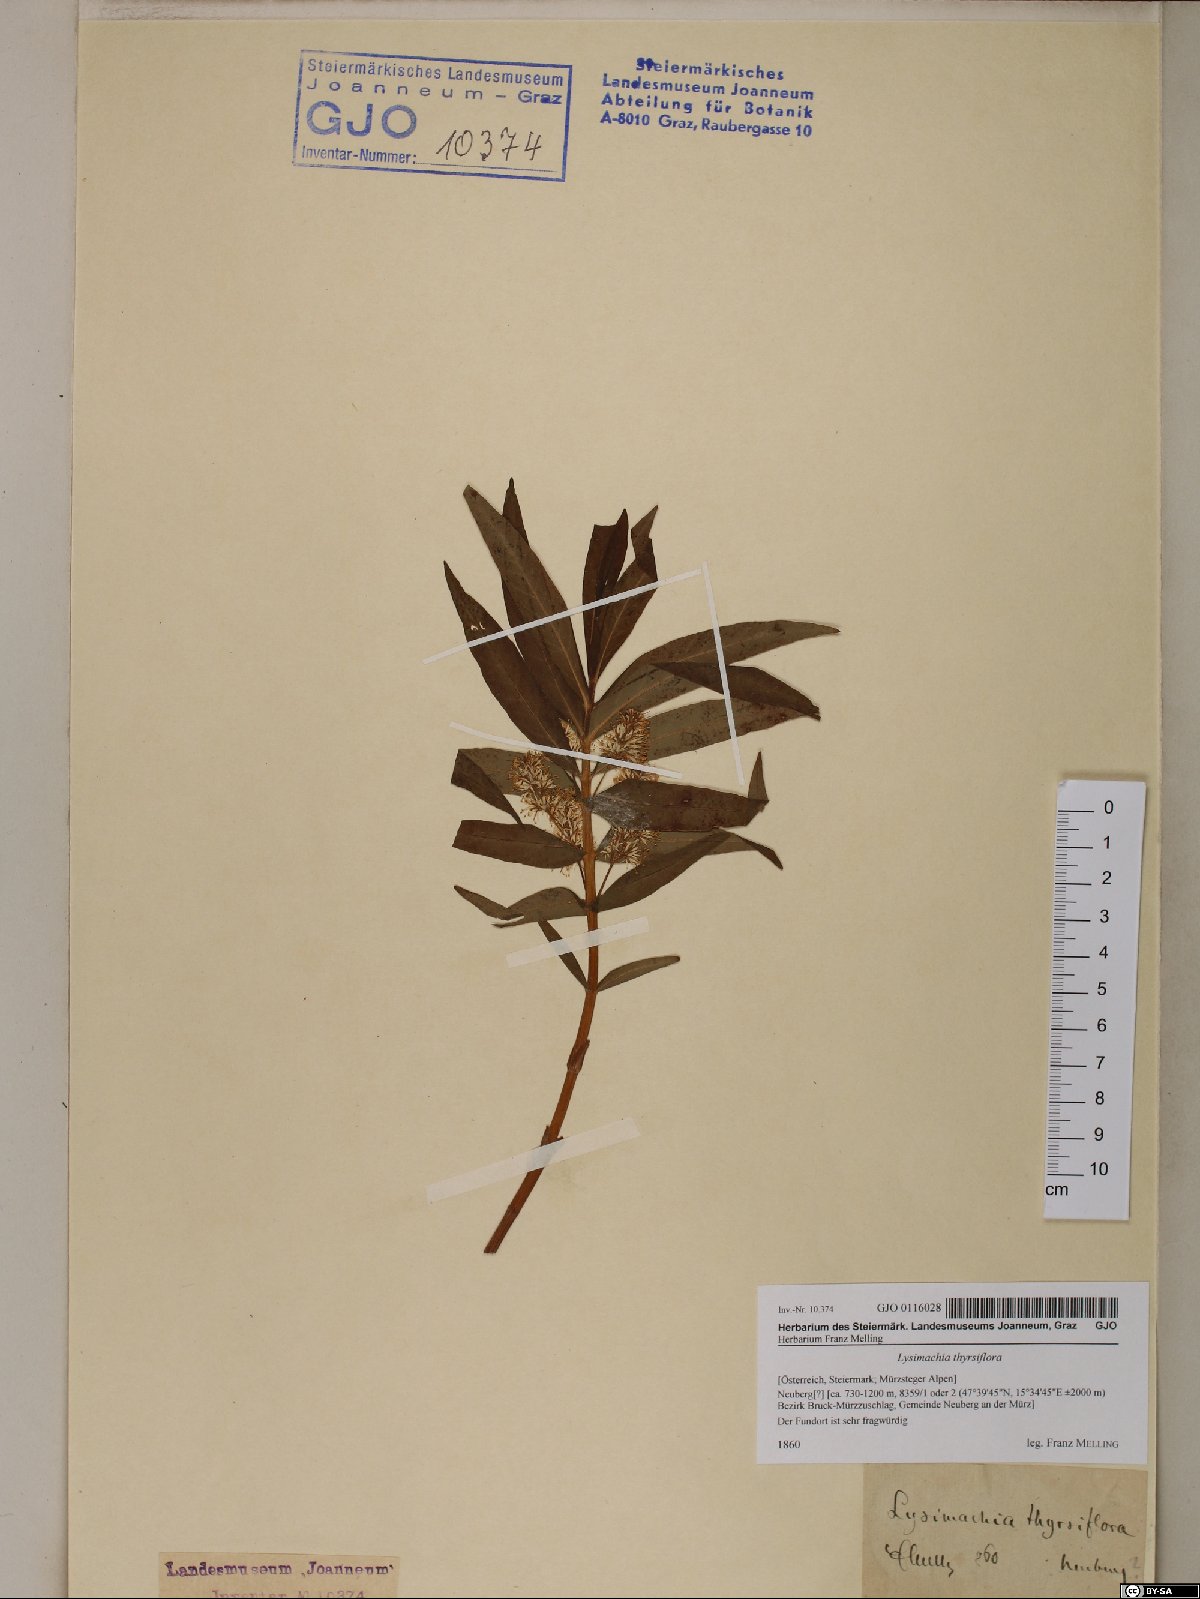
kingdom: Plantae
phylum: Tracheophyta
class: Magnoliopsida
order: Ericales
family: Primulaceae
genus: Lysimachia
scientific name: Lysimachia thyrsiflora
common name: Tufted loosestrife
